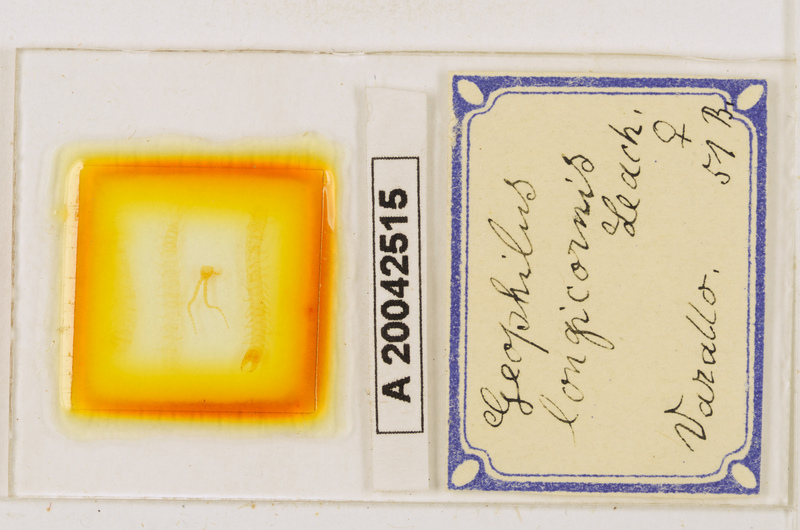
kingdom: Animalia
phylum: Arthropoda
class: Chilopoda
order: Geophilomorpha
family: Geophilidae
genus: Geophilus
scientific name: Geophilus flavus
